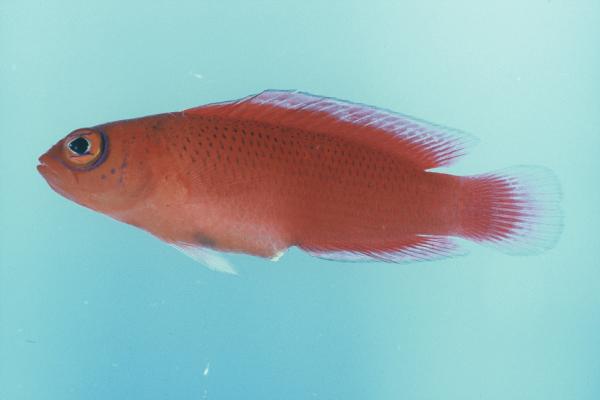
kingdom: Animalia
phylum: Chordata
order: Perciformes
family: Pseudochromidae
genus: Cypho
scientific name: Cypho purpurascens
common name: Oblique-lined dottyback
